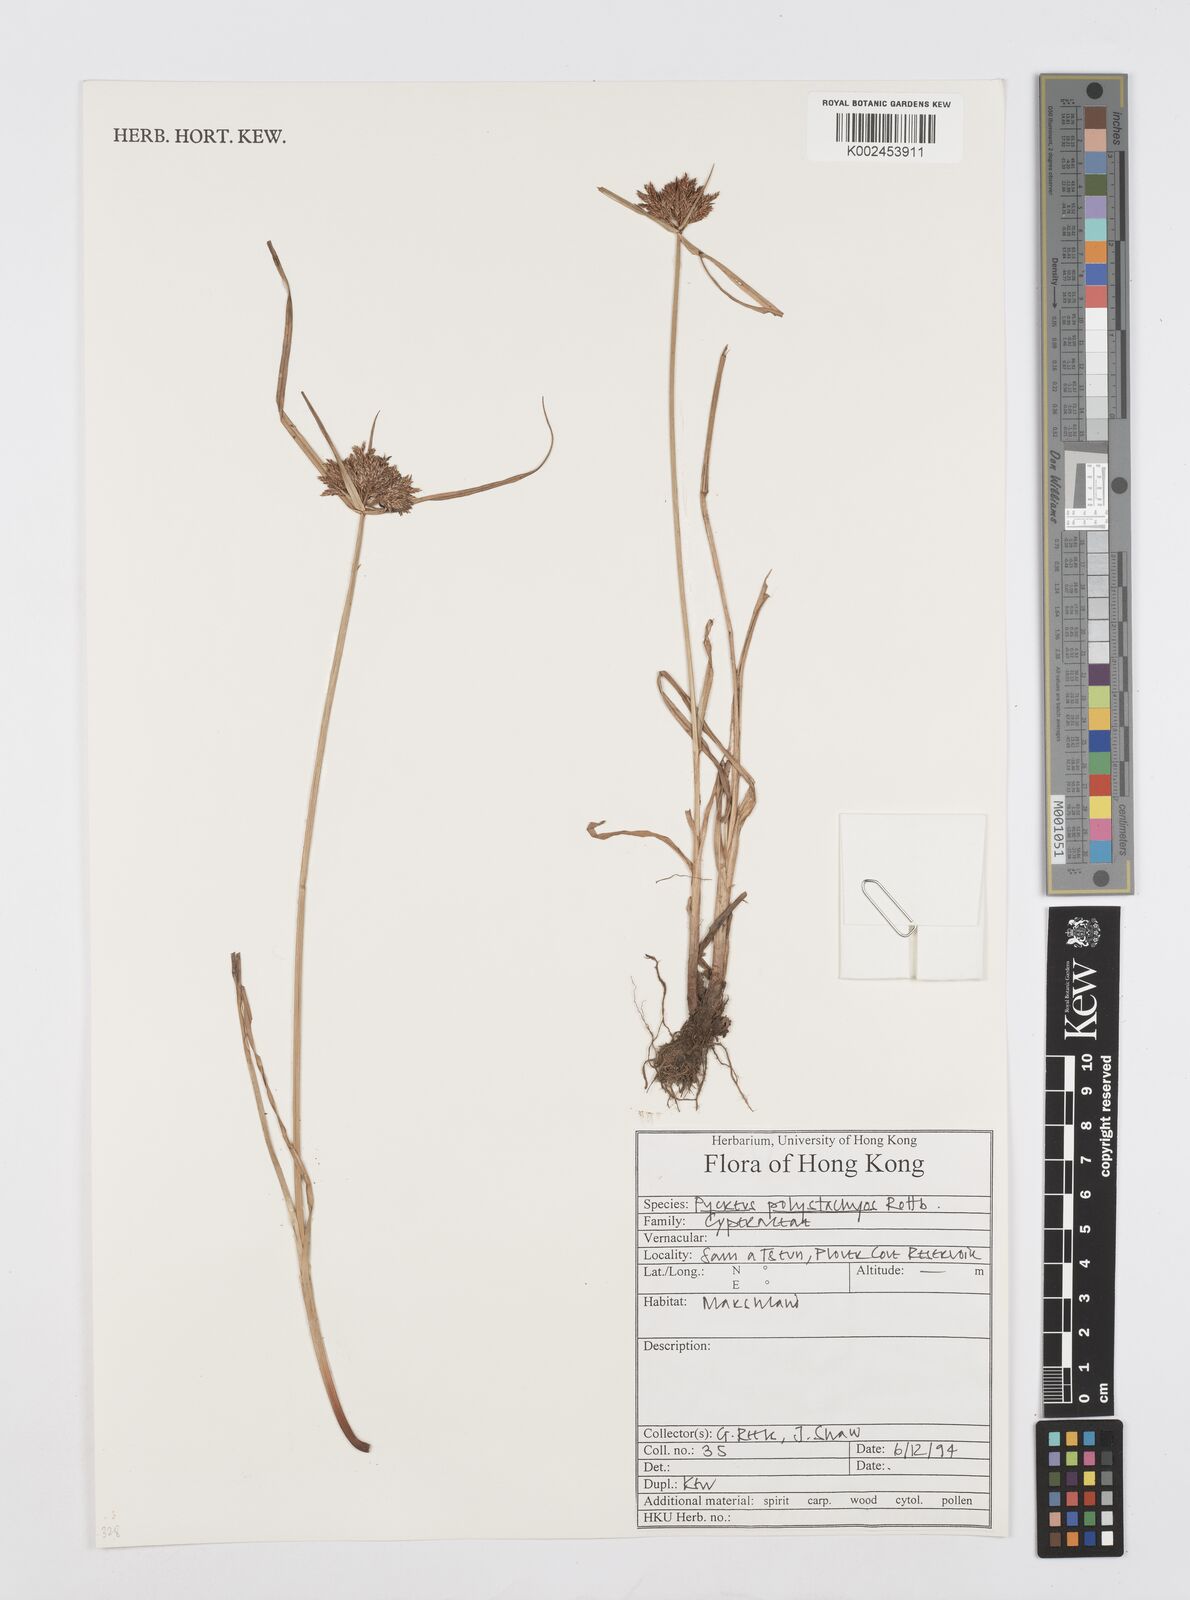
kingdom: Plantae
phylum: Tracheophyta
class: Liliopsida
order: Poales
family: Cyperaceae
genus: Cyperus
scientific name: Cyperus polystachyos
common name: Bunchy flat sedge
